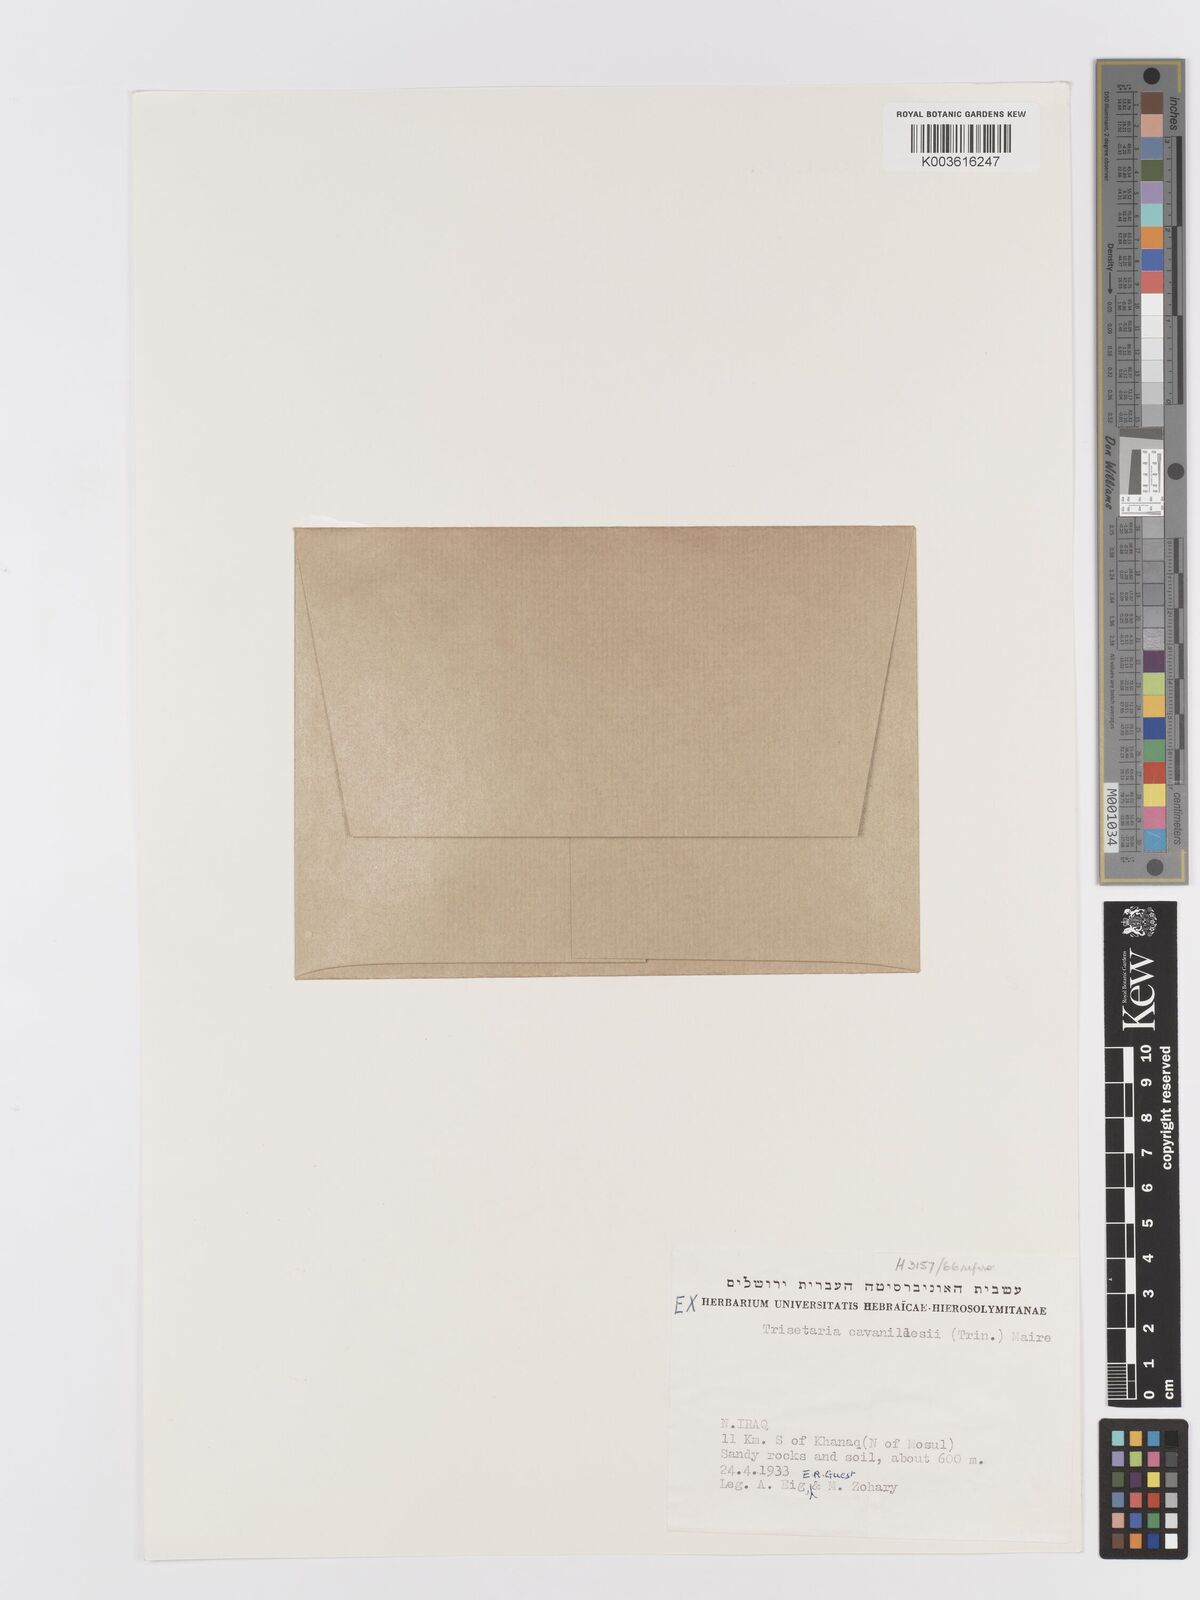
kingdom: Plantae
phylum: Tracheophyta
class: Liliopsida
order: Poales
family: Poaceae
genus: Trisetaria
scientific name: Trisetaria loeflingiana
